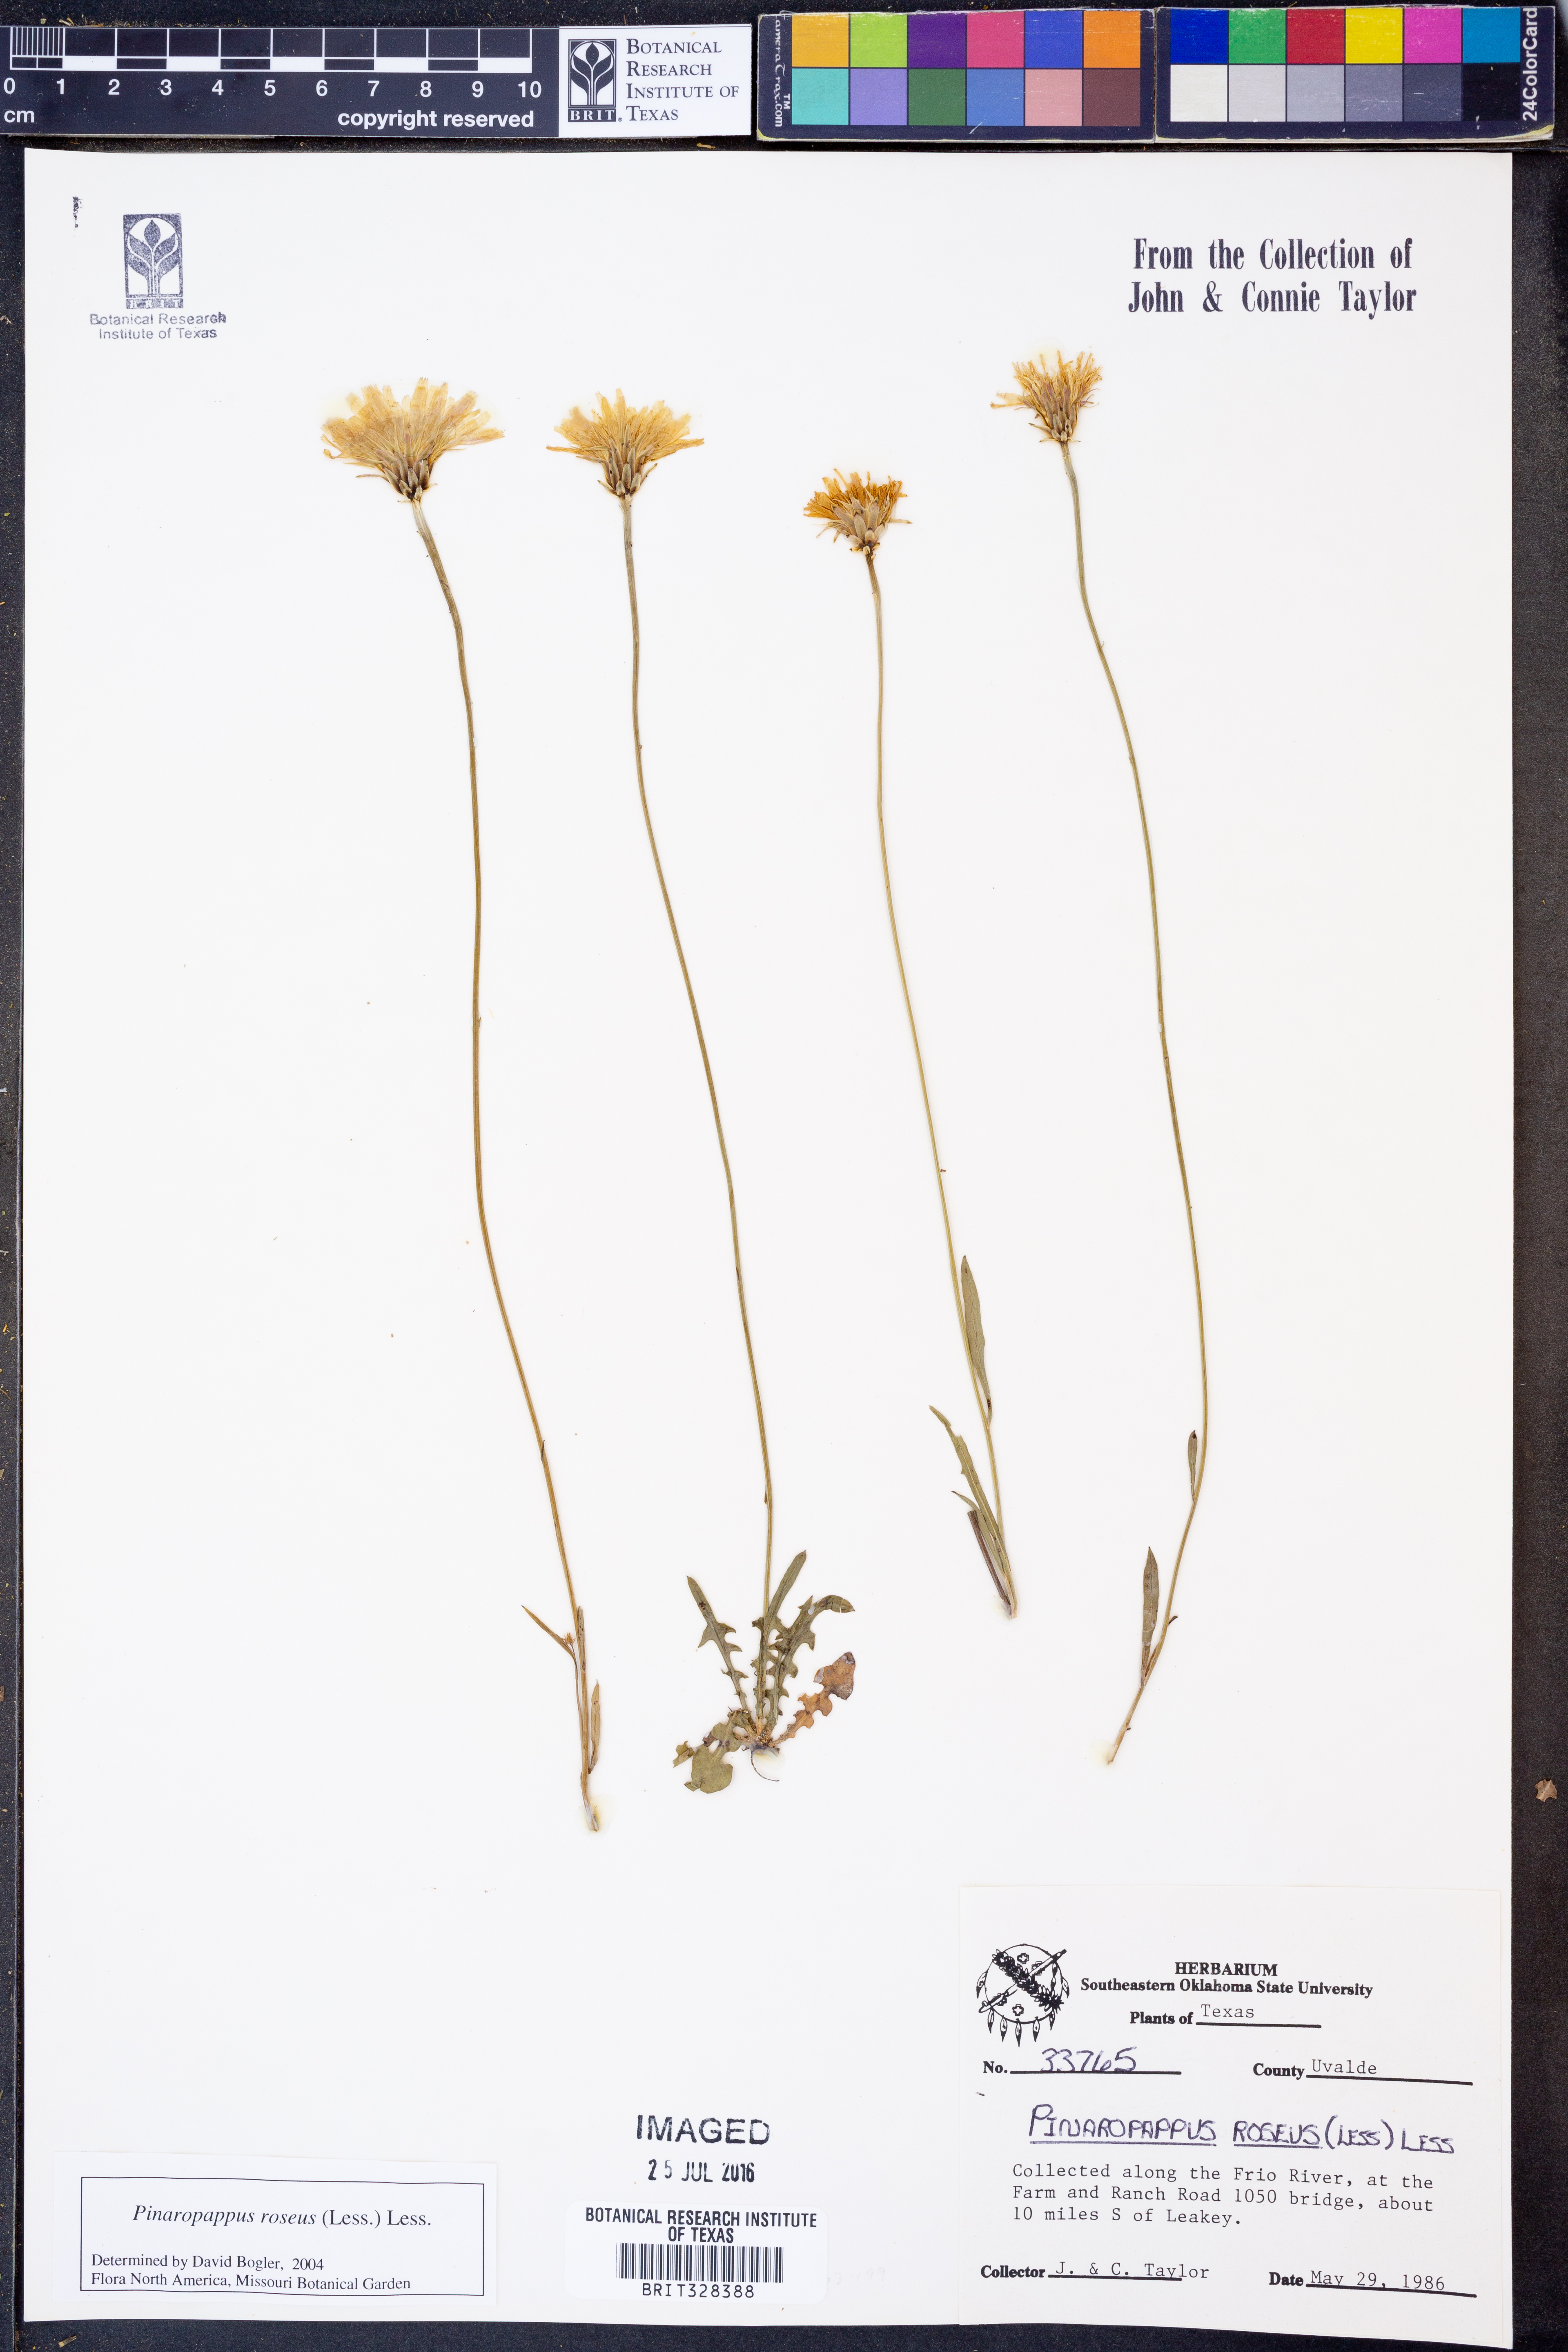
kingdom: Plantae
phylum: Tracheophyta
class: Magnoliopsida
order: Asterales
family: Asteraceae
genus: Pinaropappus
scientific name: Pinaropappus roseus
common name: Rock-lettuce
